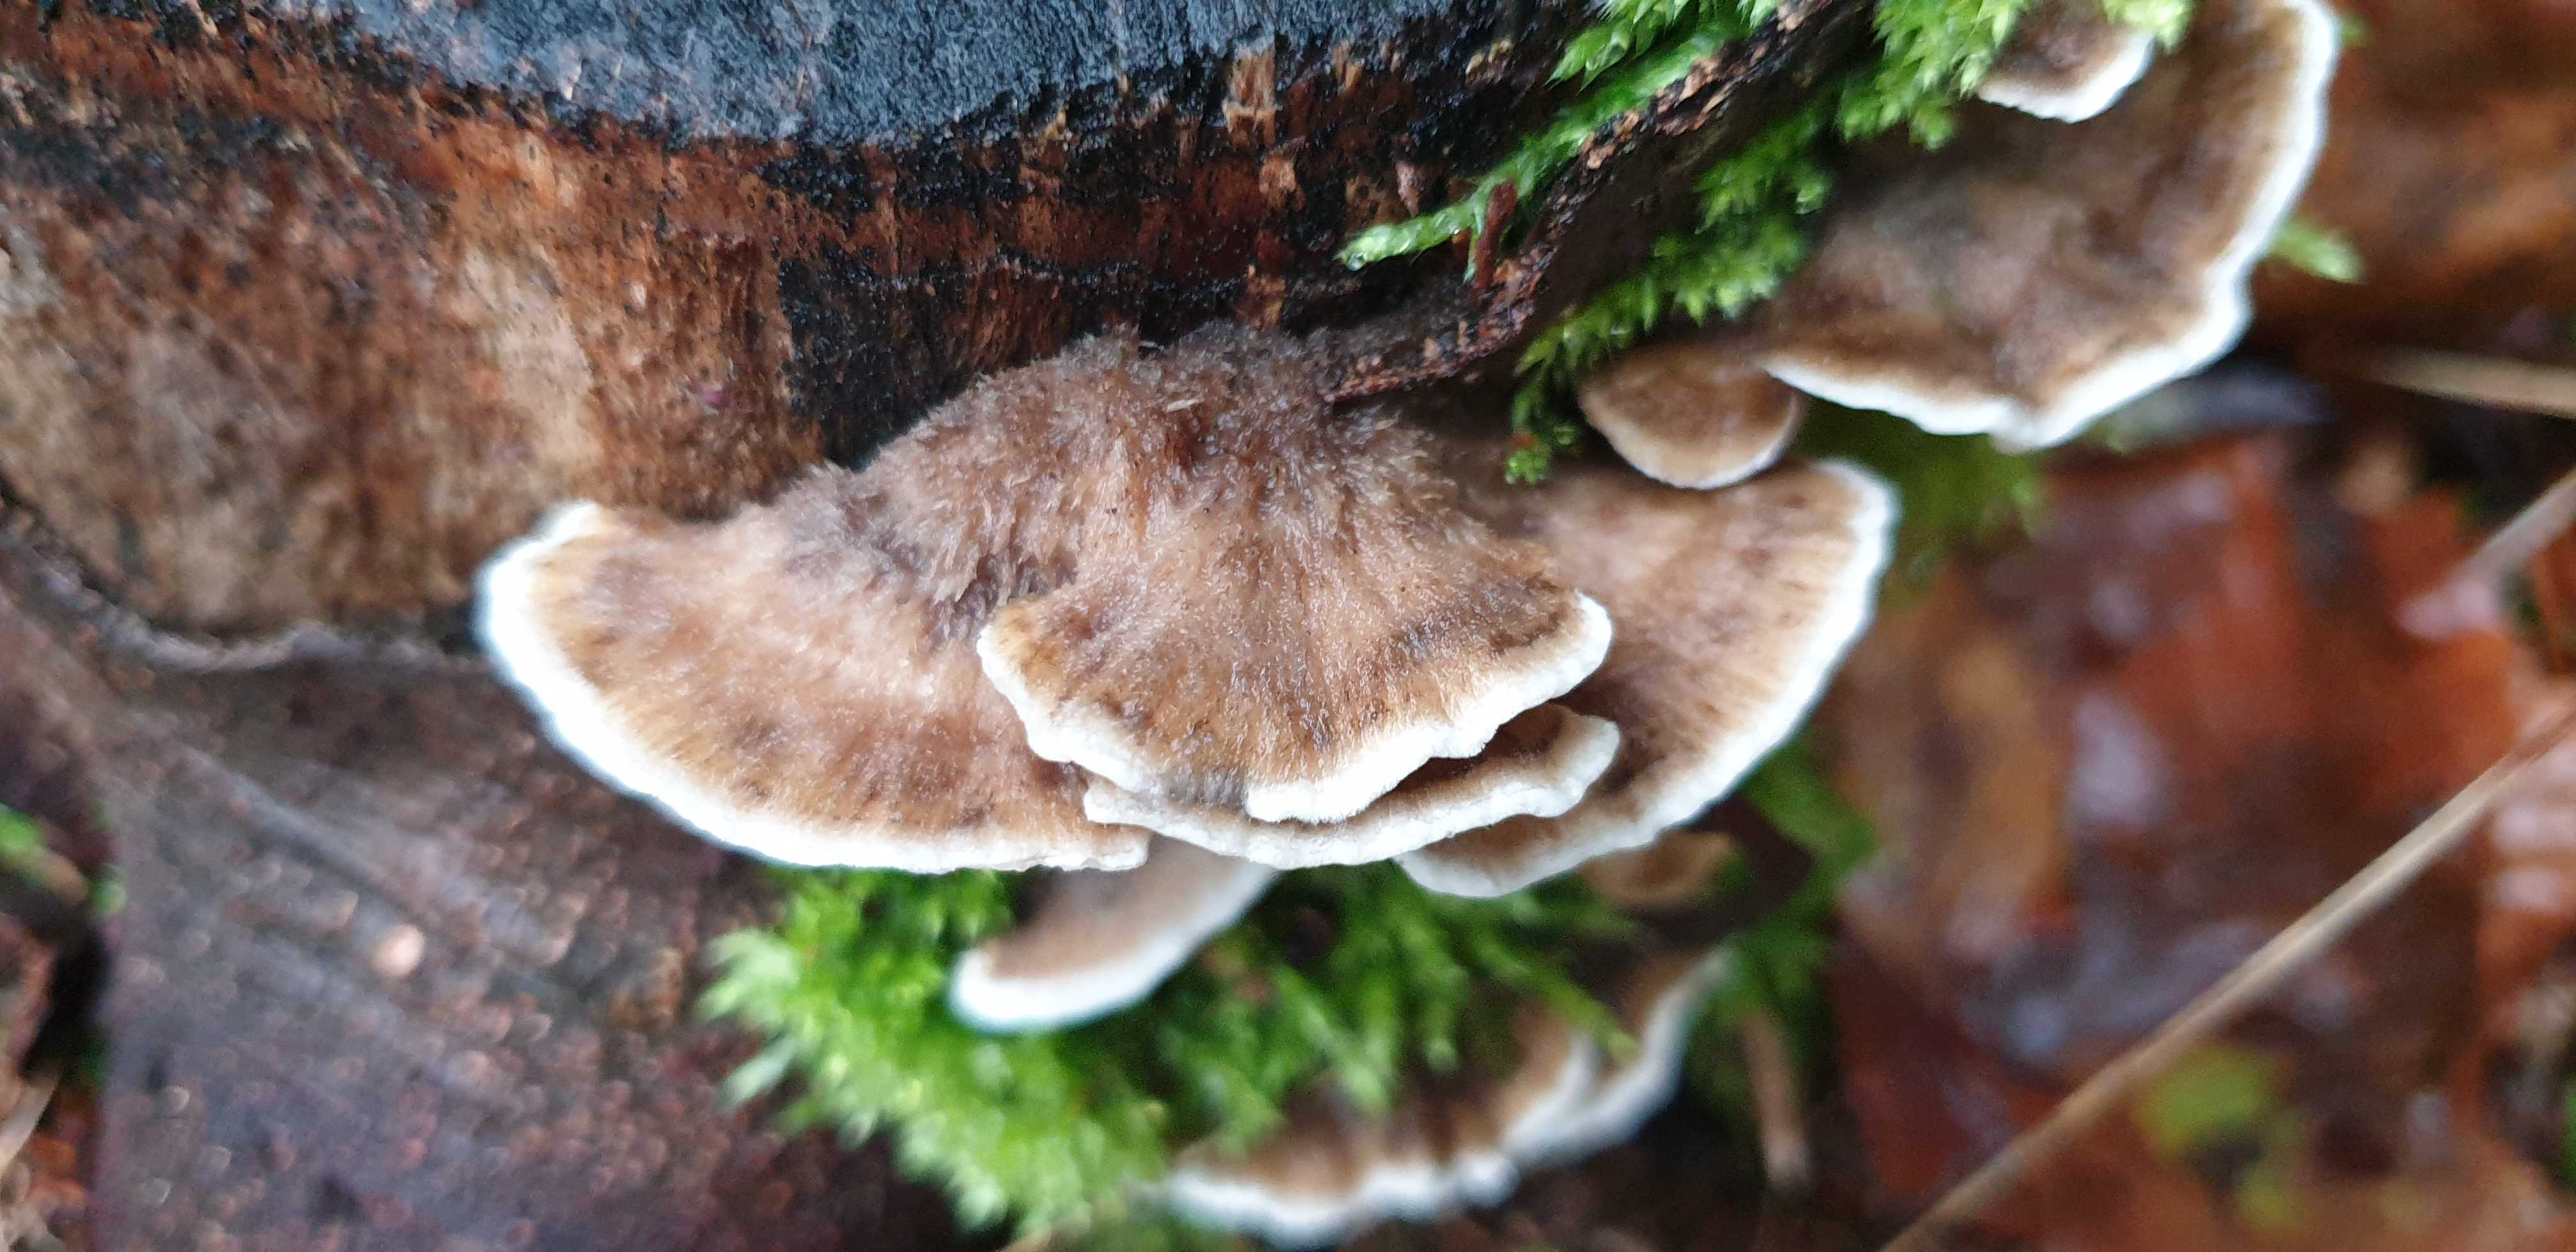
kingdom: Fungi
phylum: Basidiomycota
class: Agaricomycetes
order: Polyporales
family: Polyporaceae
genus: Trametes
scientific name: Trametes versicolor
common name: broget læderporesvamp
